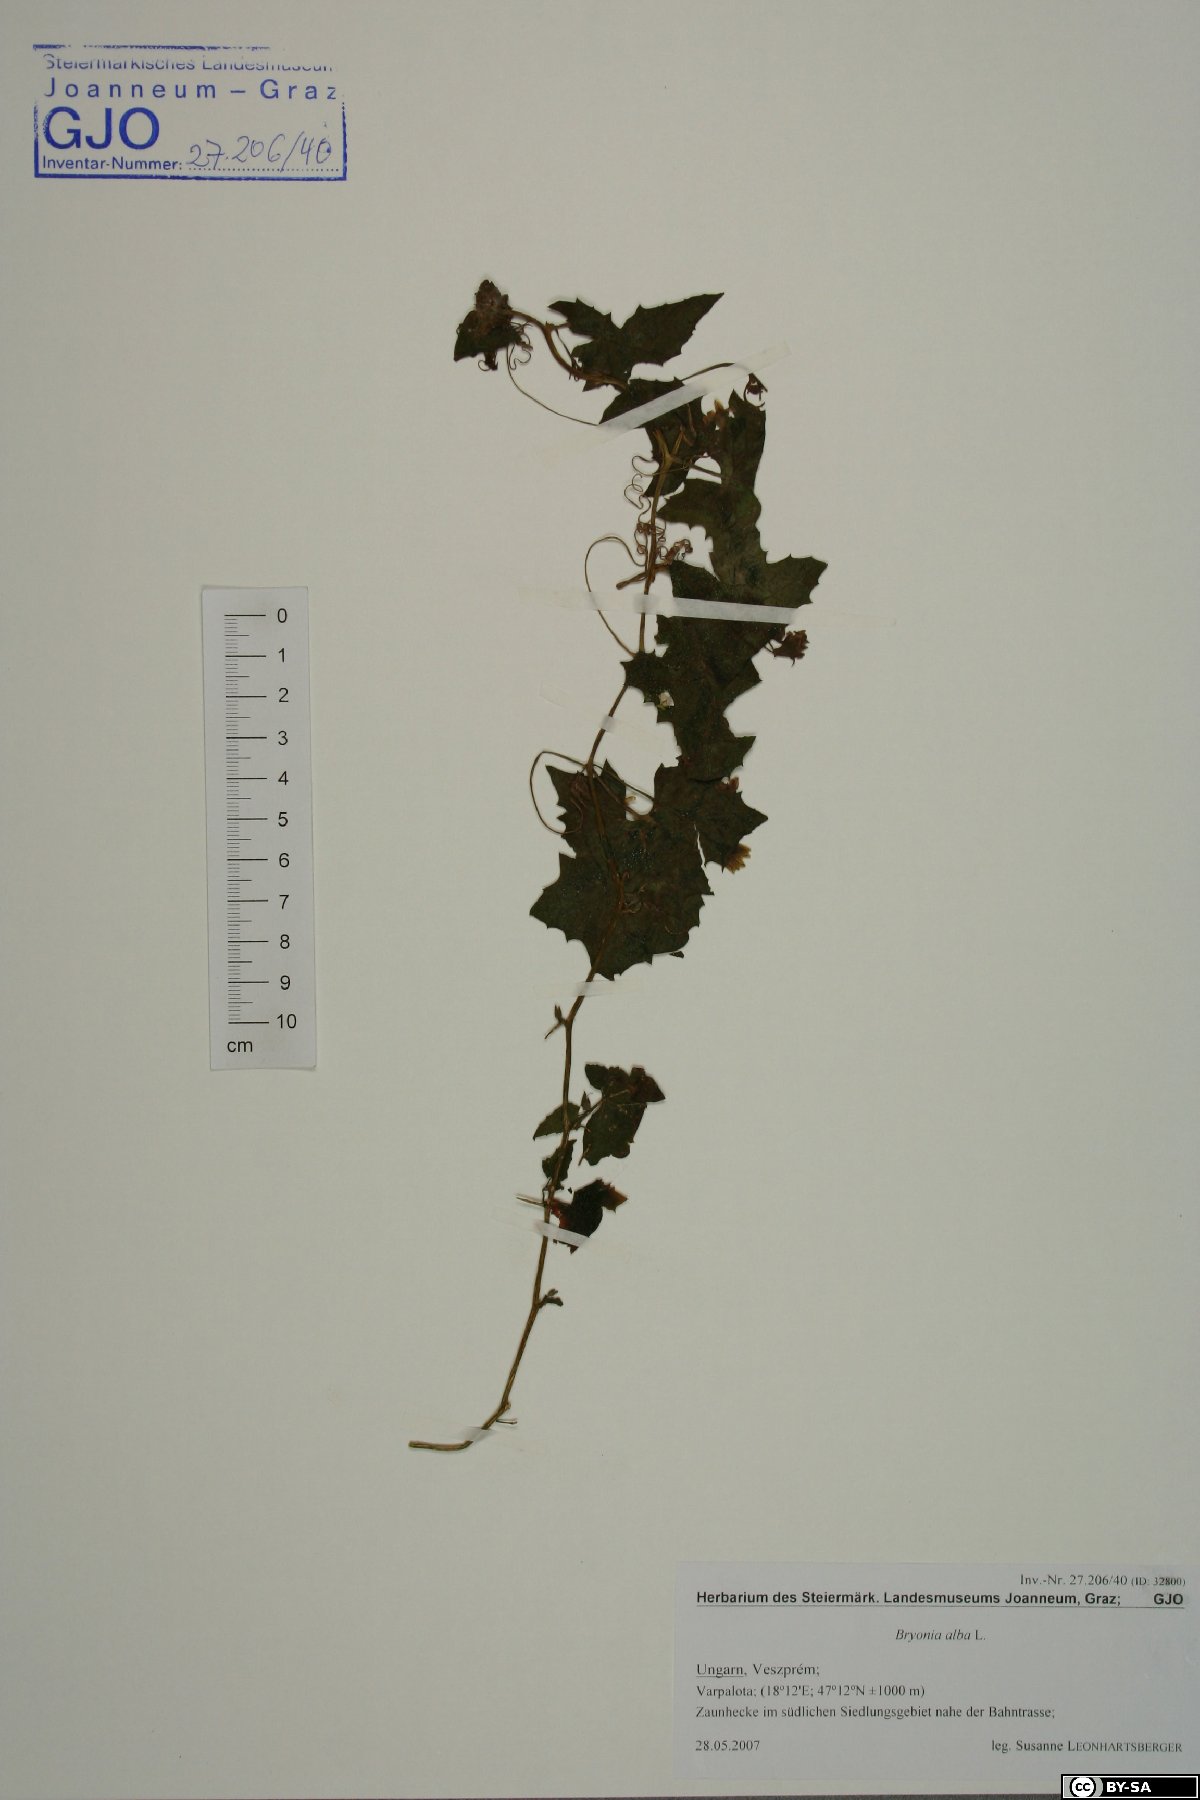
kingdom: Plantae
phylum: Tracheophyta
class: Magnoliopsida
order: Cucurbitales
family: Cucurbitaceae
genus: Bryonia
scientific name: Bryonia alba
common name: White bryony
